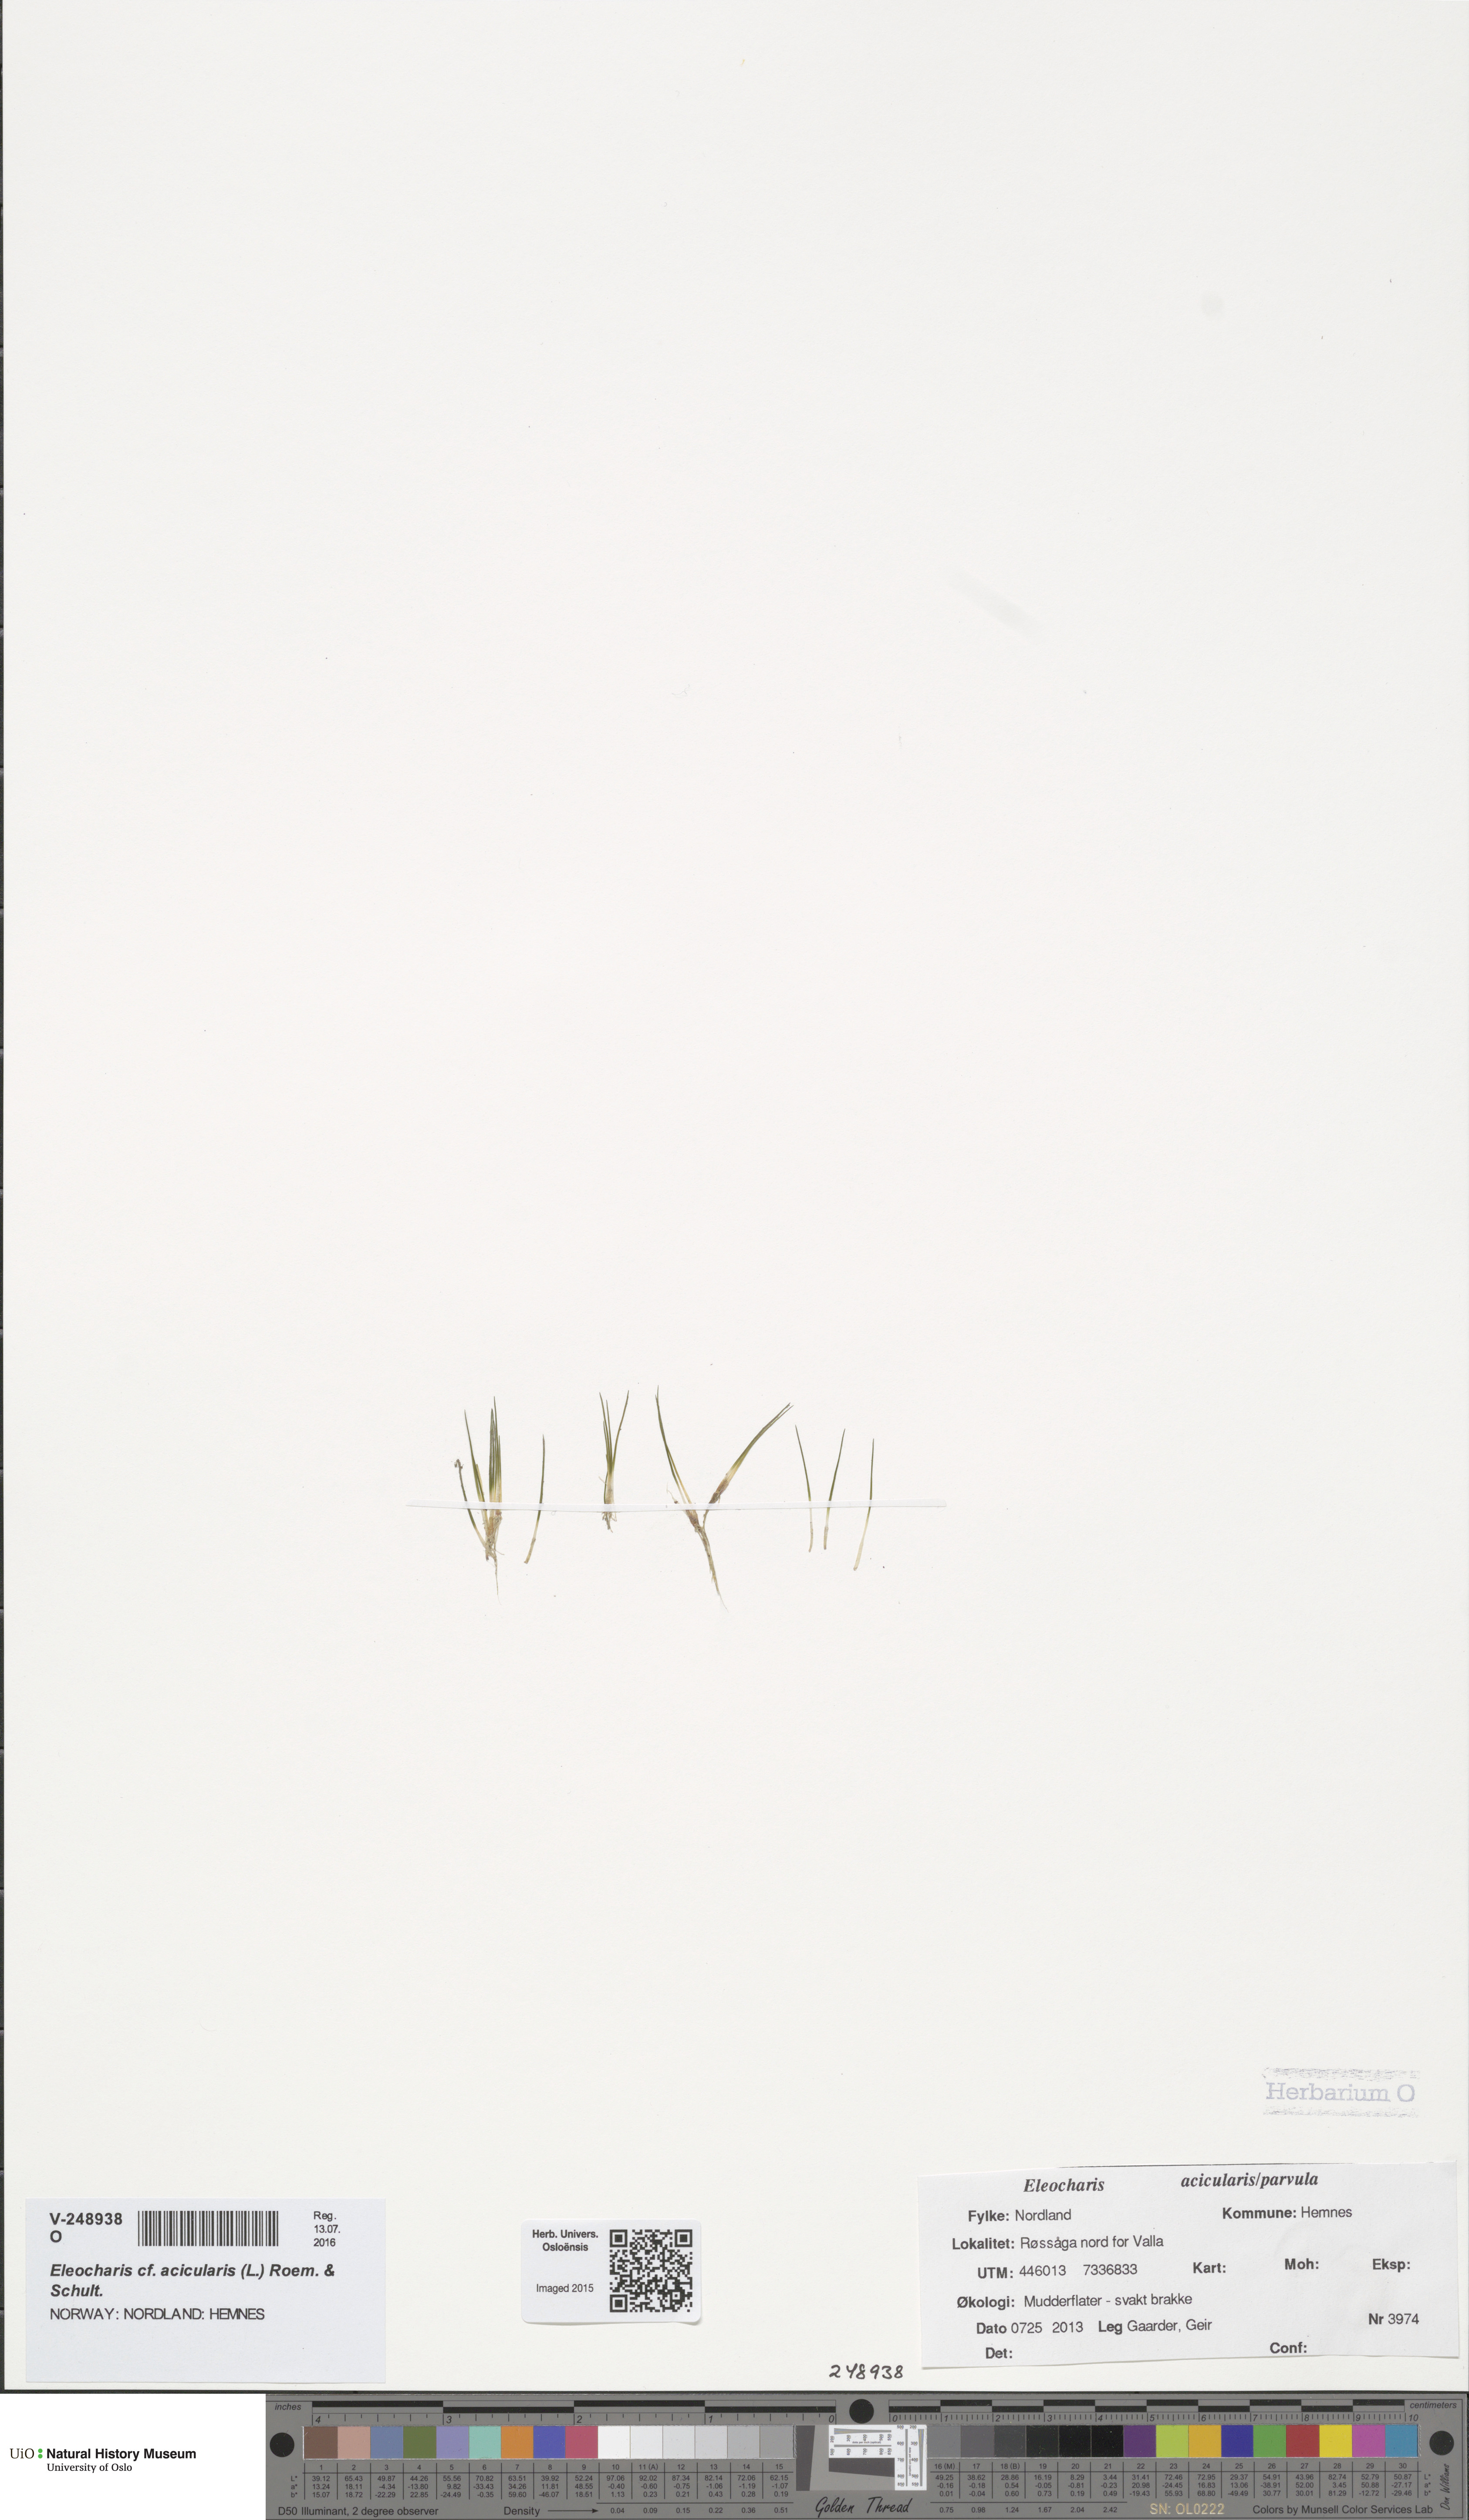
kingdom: Plantae
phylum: Tracheophyta
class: Liliopsida
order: Poales
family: Cyperaceae
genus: Eleocharis
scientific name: Eleocharis acicularis
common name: Needle spike-rush
